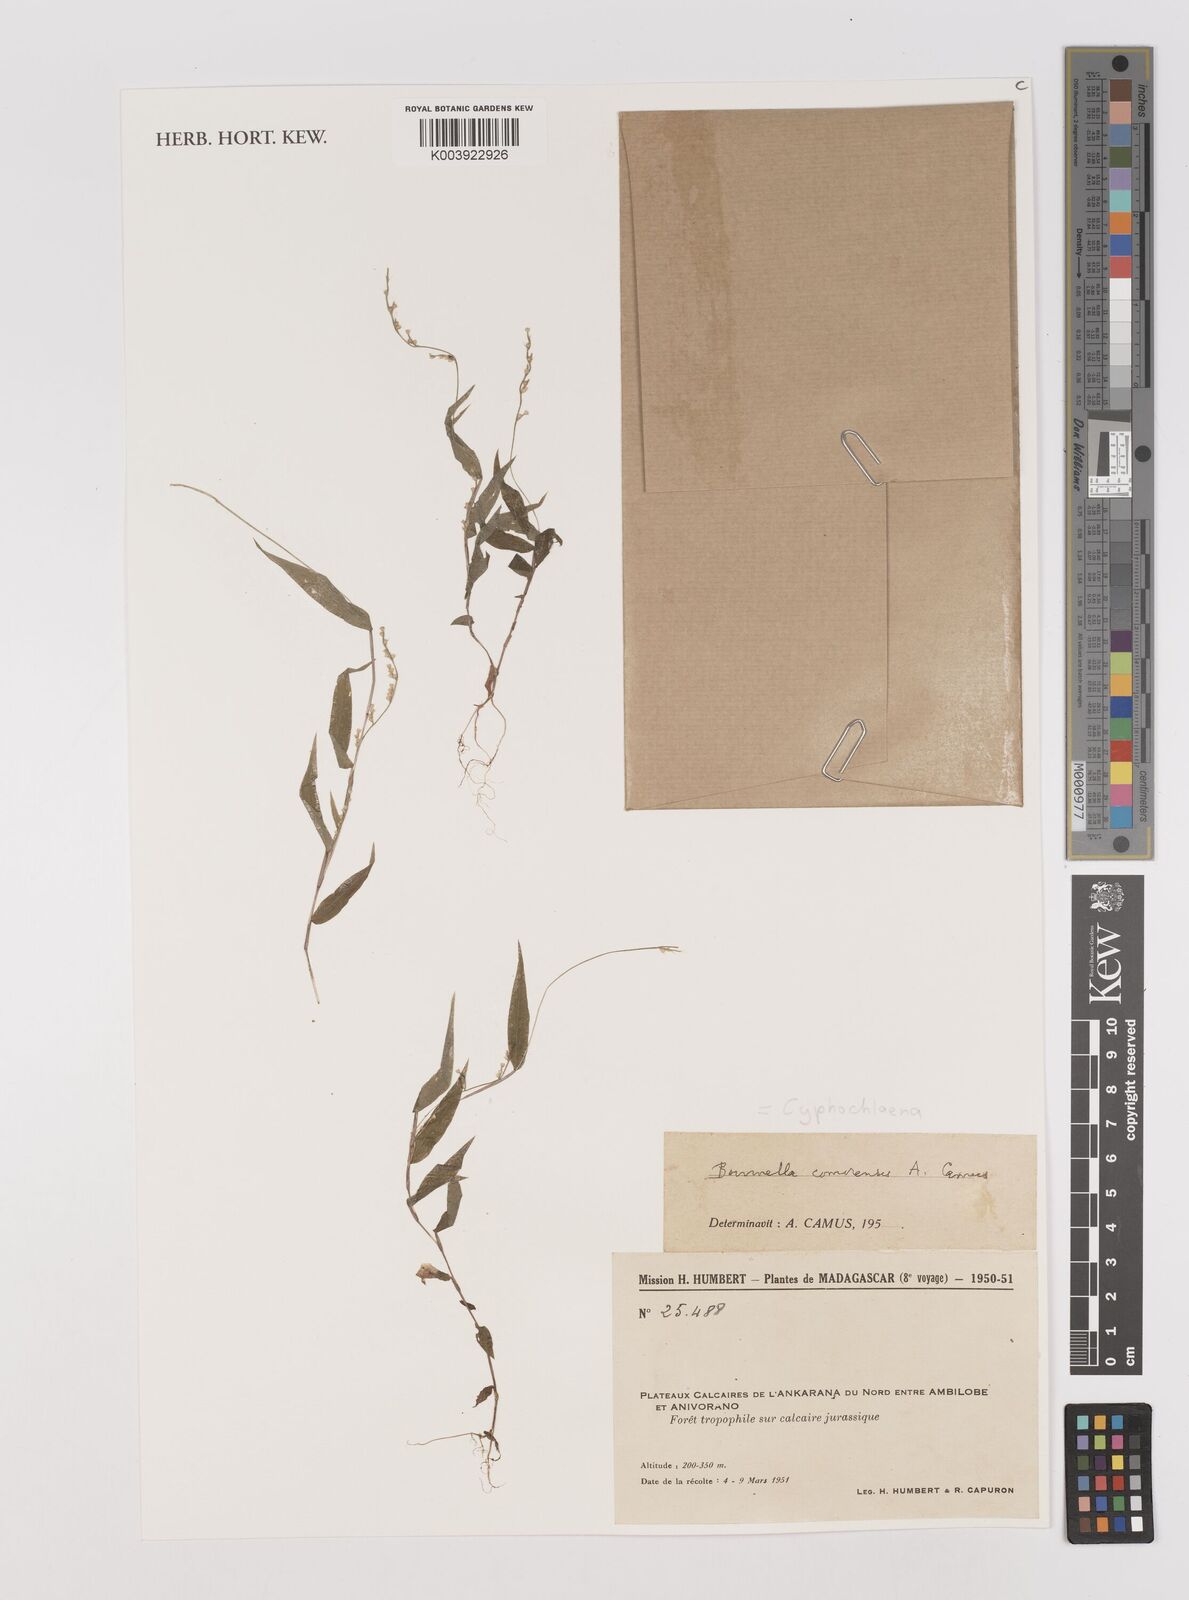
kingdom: Plantae
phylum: Tracheophyta
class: Liliopsida
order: Poales
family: Poaceae
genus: Cyphochlaena
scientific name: Cyphochlaena madagascariensis
